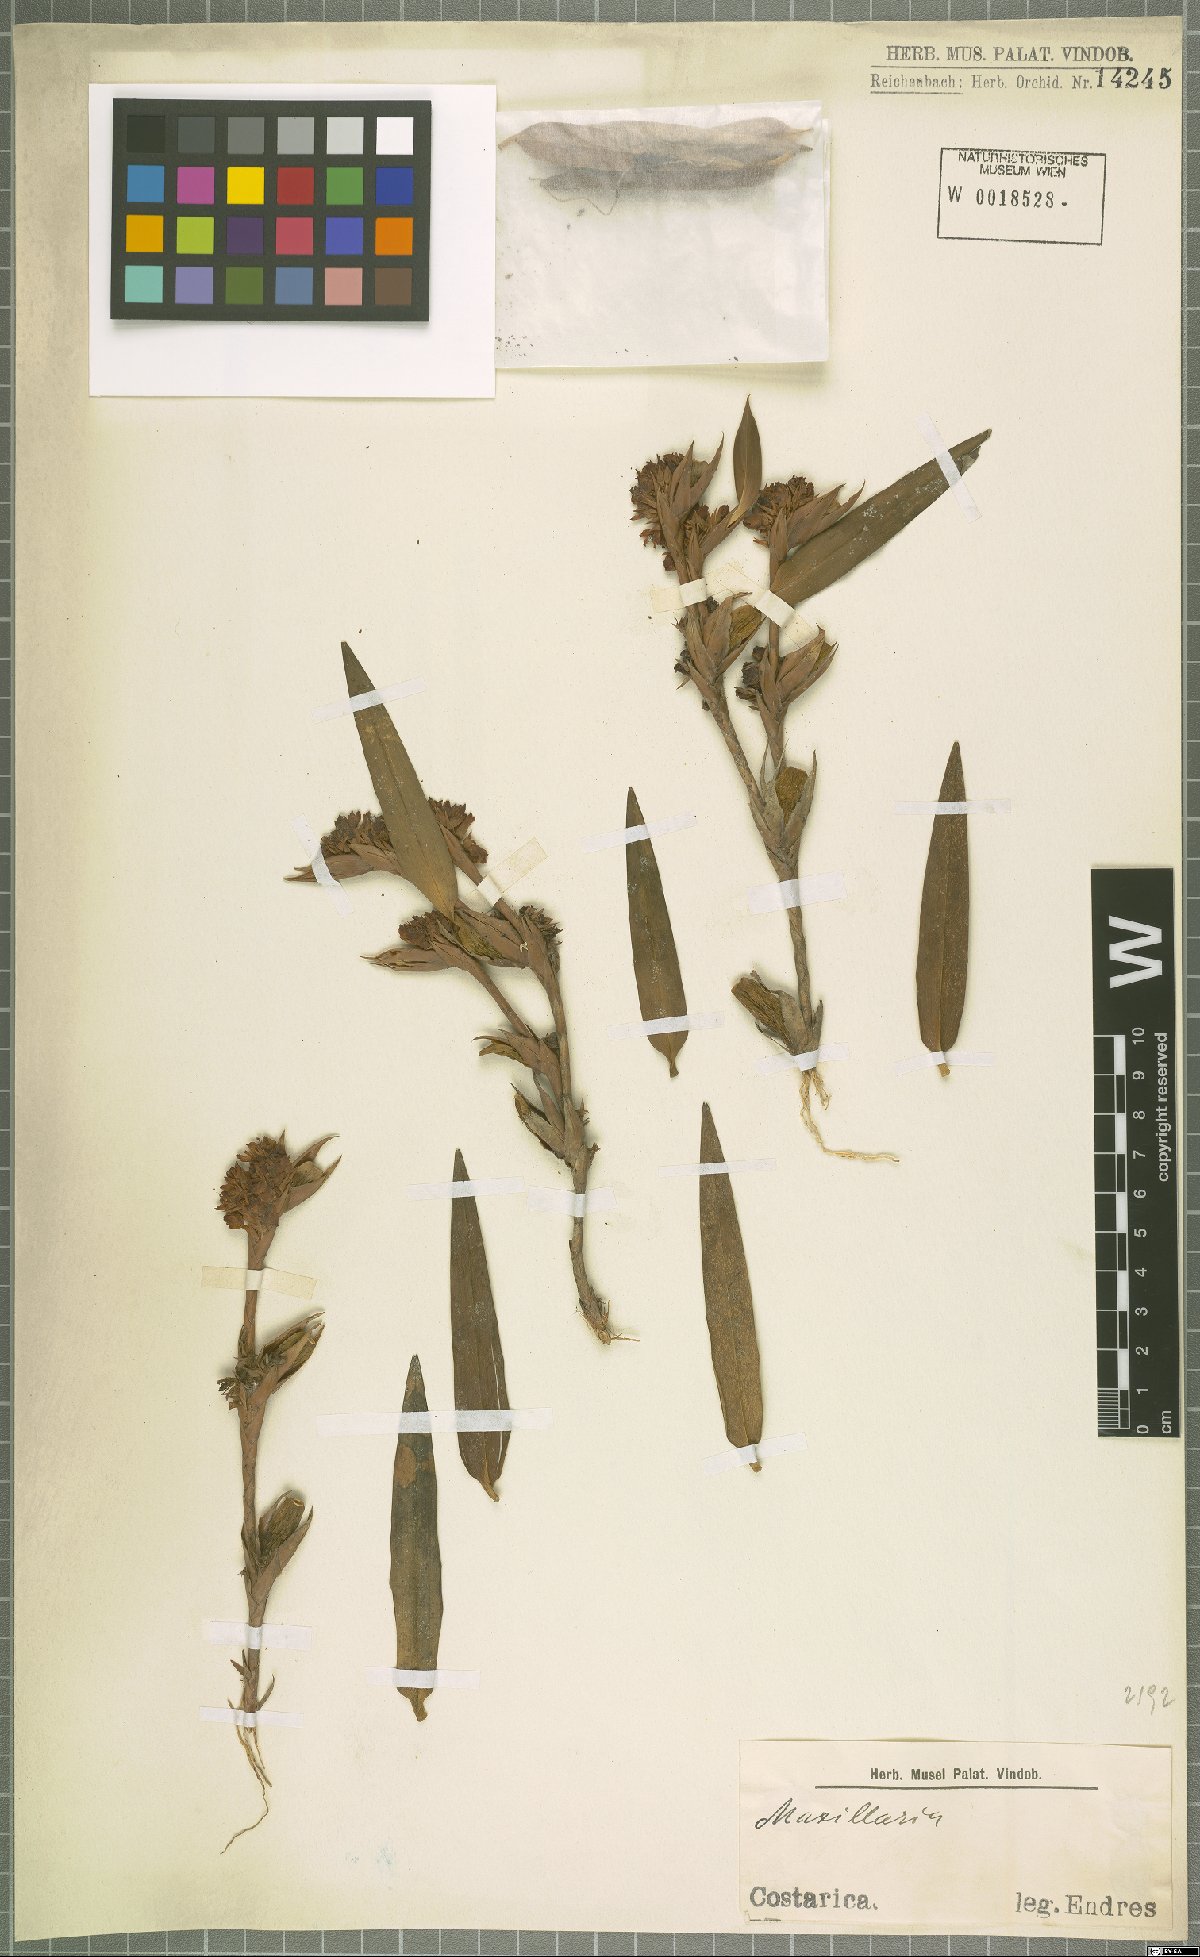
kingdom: Plantae
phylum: Tracheophyta
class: Liliopsida
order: Asparagales
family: Orchidaceae
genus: Maxillaria
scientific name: Maxillaria
